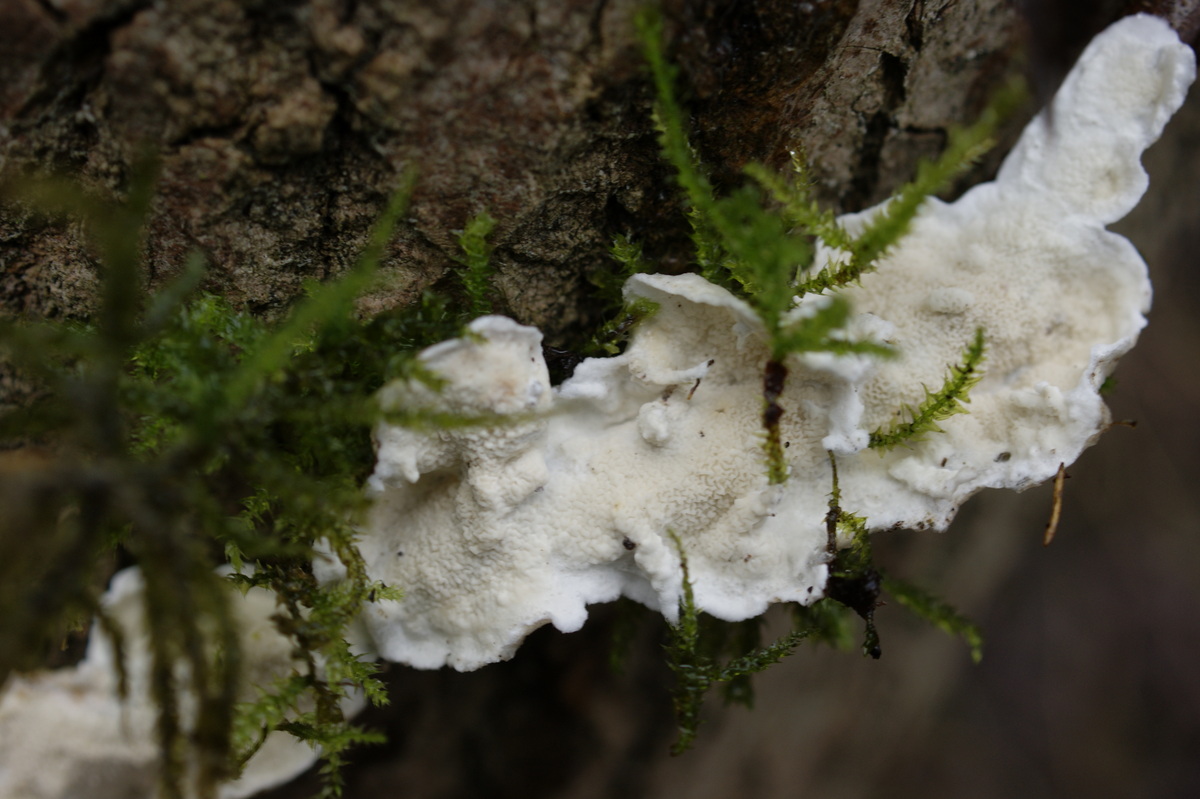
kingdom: Fungi
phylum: Basidiomycota
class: Agaricomycetes
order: Polyporales
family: Irpicaceae
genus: Byssomerulius
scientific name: Byssomerulius corium
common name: læder-åresvamp
